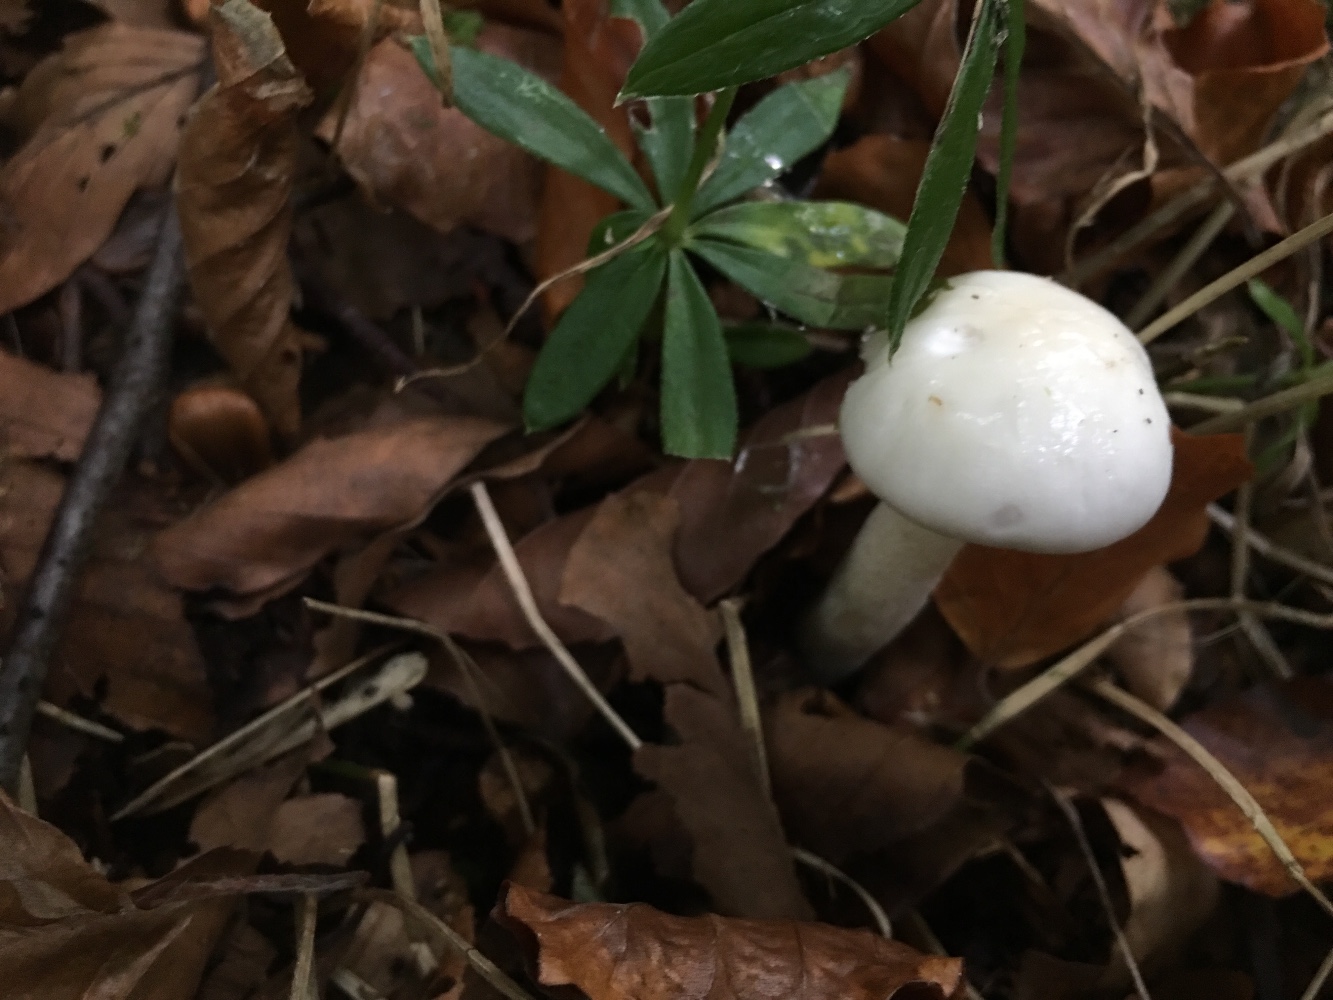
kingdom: Fungi
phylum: Basidiomycota
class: Agaricomycetes
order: Agaricales
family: Hygrophoraceae
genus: Hygrophorus
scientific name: Hygrophorus eburneus
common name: elfenbens-sneglehat
